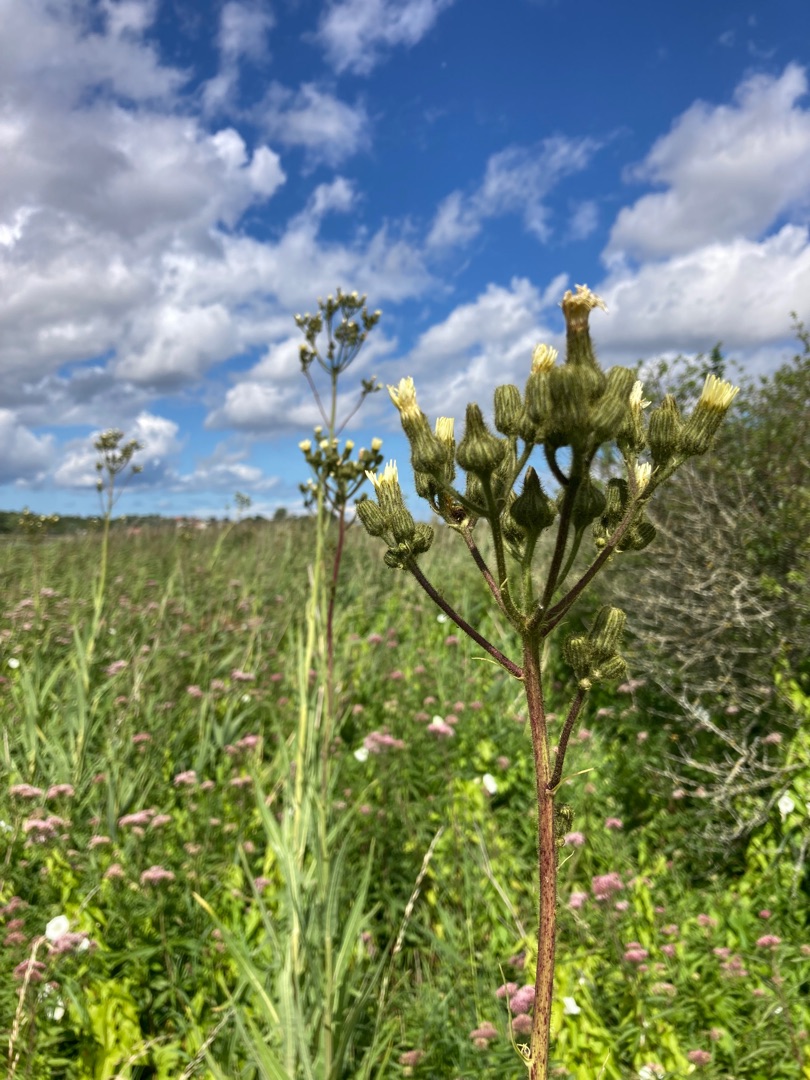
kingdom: Plantae
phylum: Tracheophyta
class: Magnoliopsida
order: Asterales
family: Asteraceae
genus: Sonchus
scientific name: Sonchus palustris
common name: Kær-svinemælk
